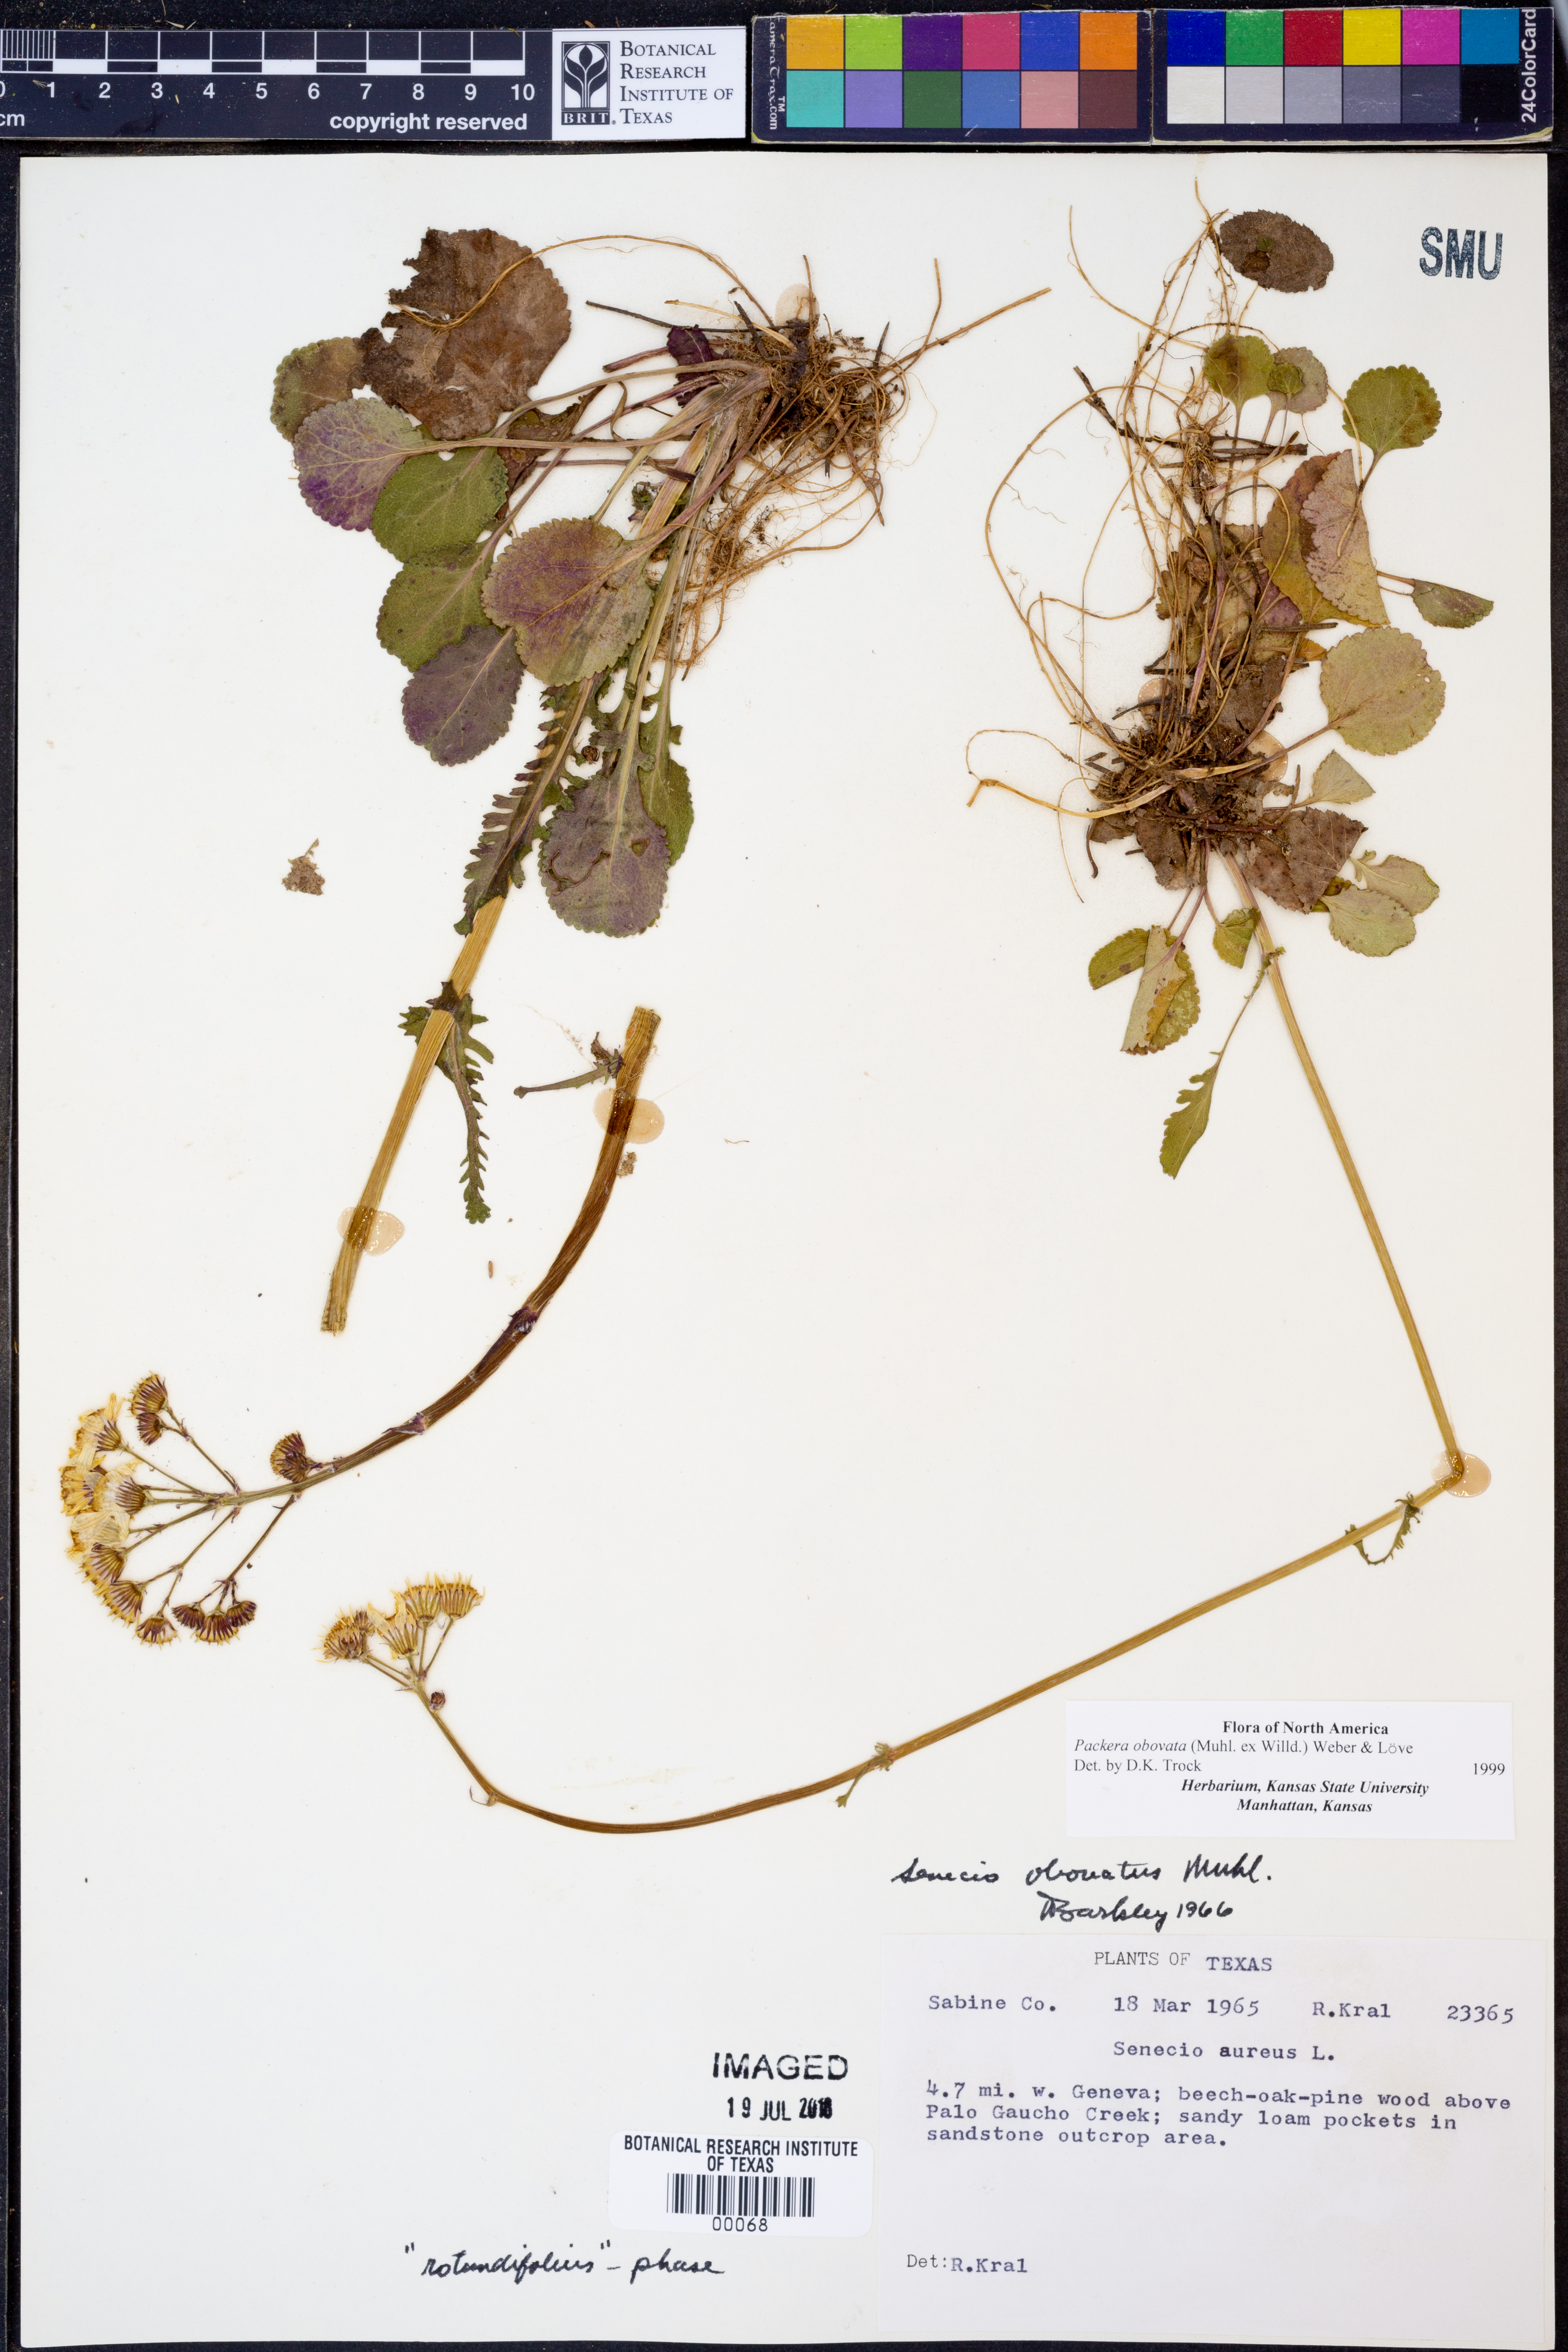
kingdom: Plantae
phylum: Tracheophyta
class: Magnoliopsida
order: Asterales
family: Asteraceae
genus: Packera
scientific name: Packera obovata
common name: Round-leaf ragwort
